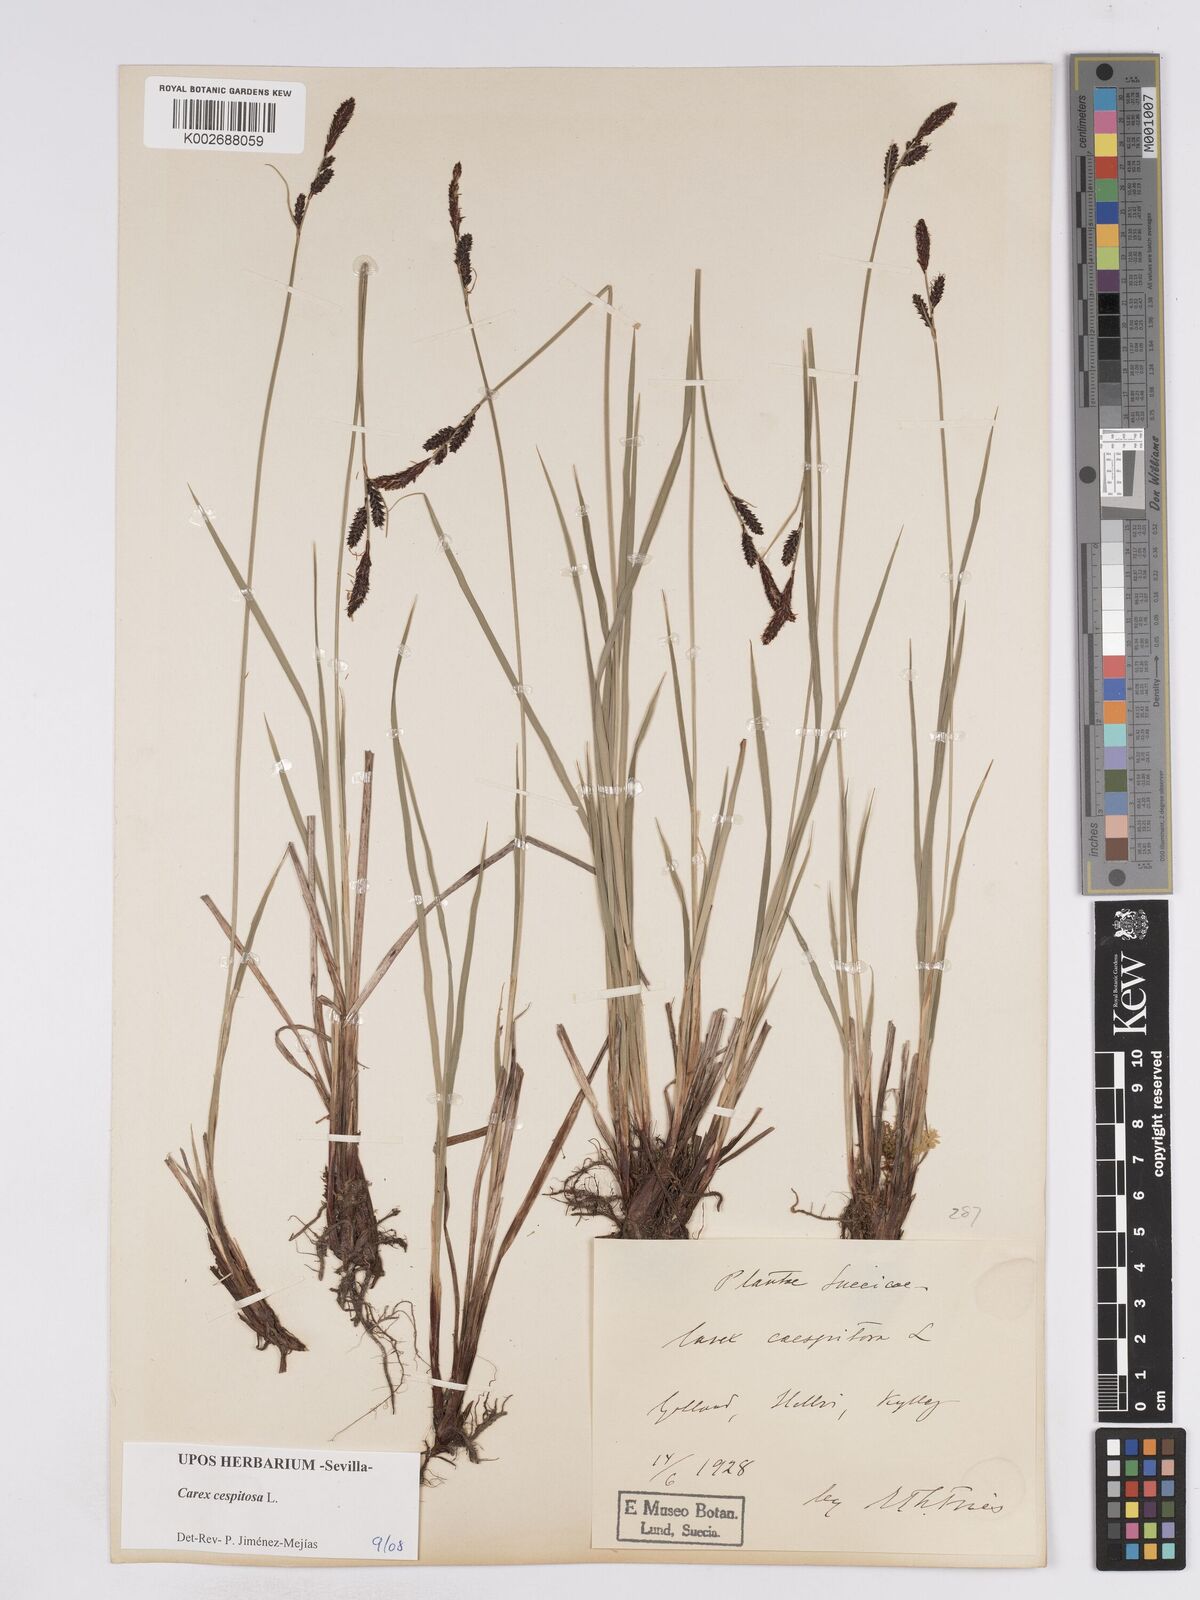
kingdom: Plantae
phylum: Tracheophyta
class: Liliopsida
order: Poales
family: Cyperaceae
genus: Carex
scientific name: Carex
